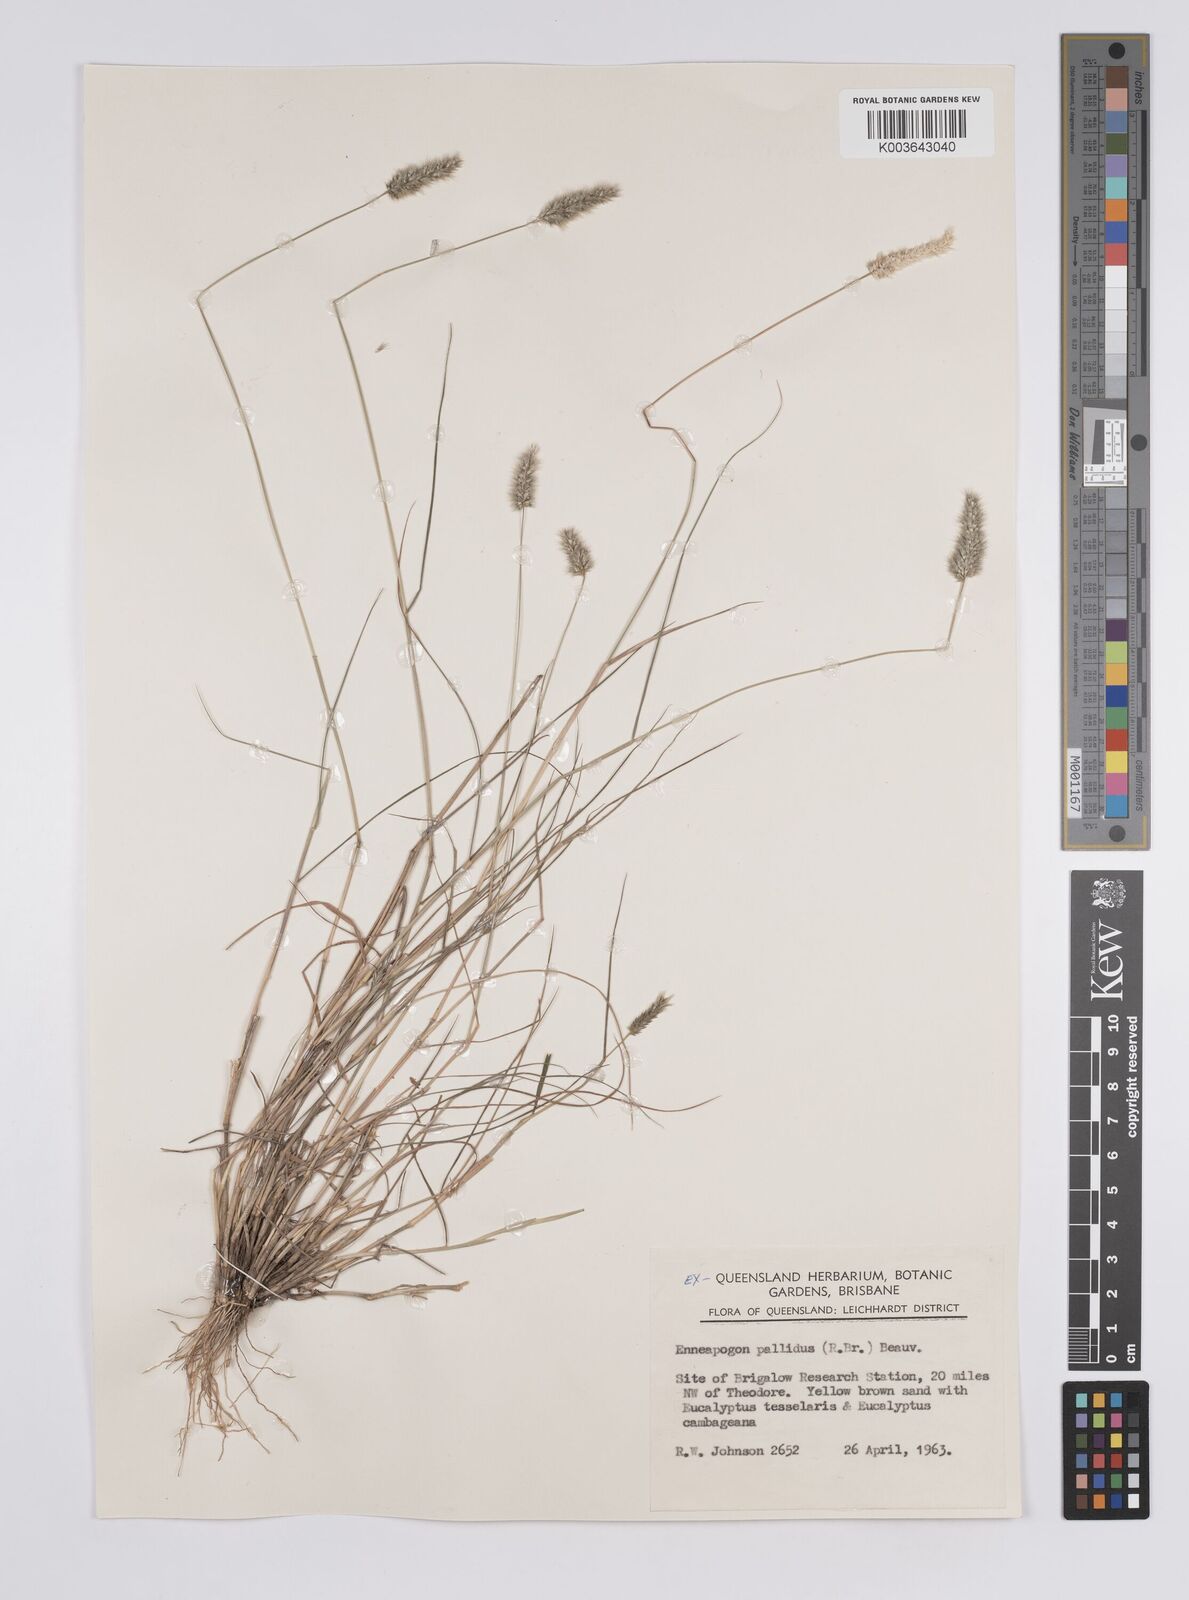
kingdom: Plantae
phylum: Tracheophyta
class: Liliopsida
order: Poales
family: Poaceae
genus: Enneapogon
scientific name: Enneapogon pallidus
